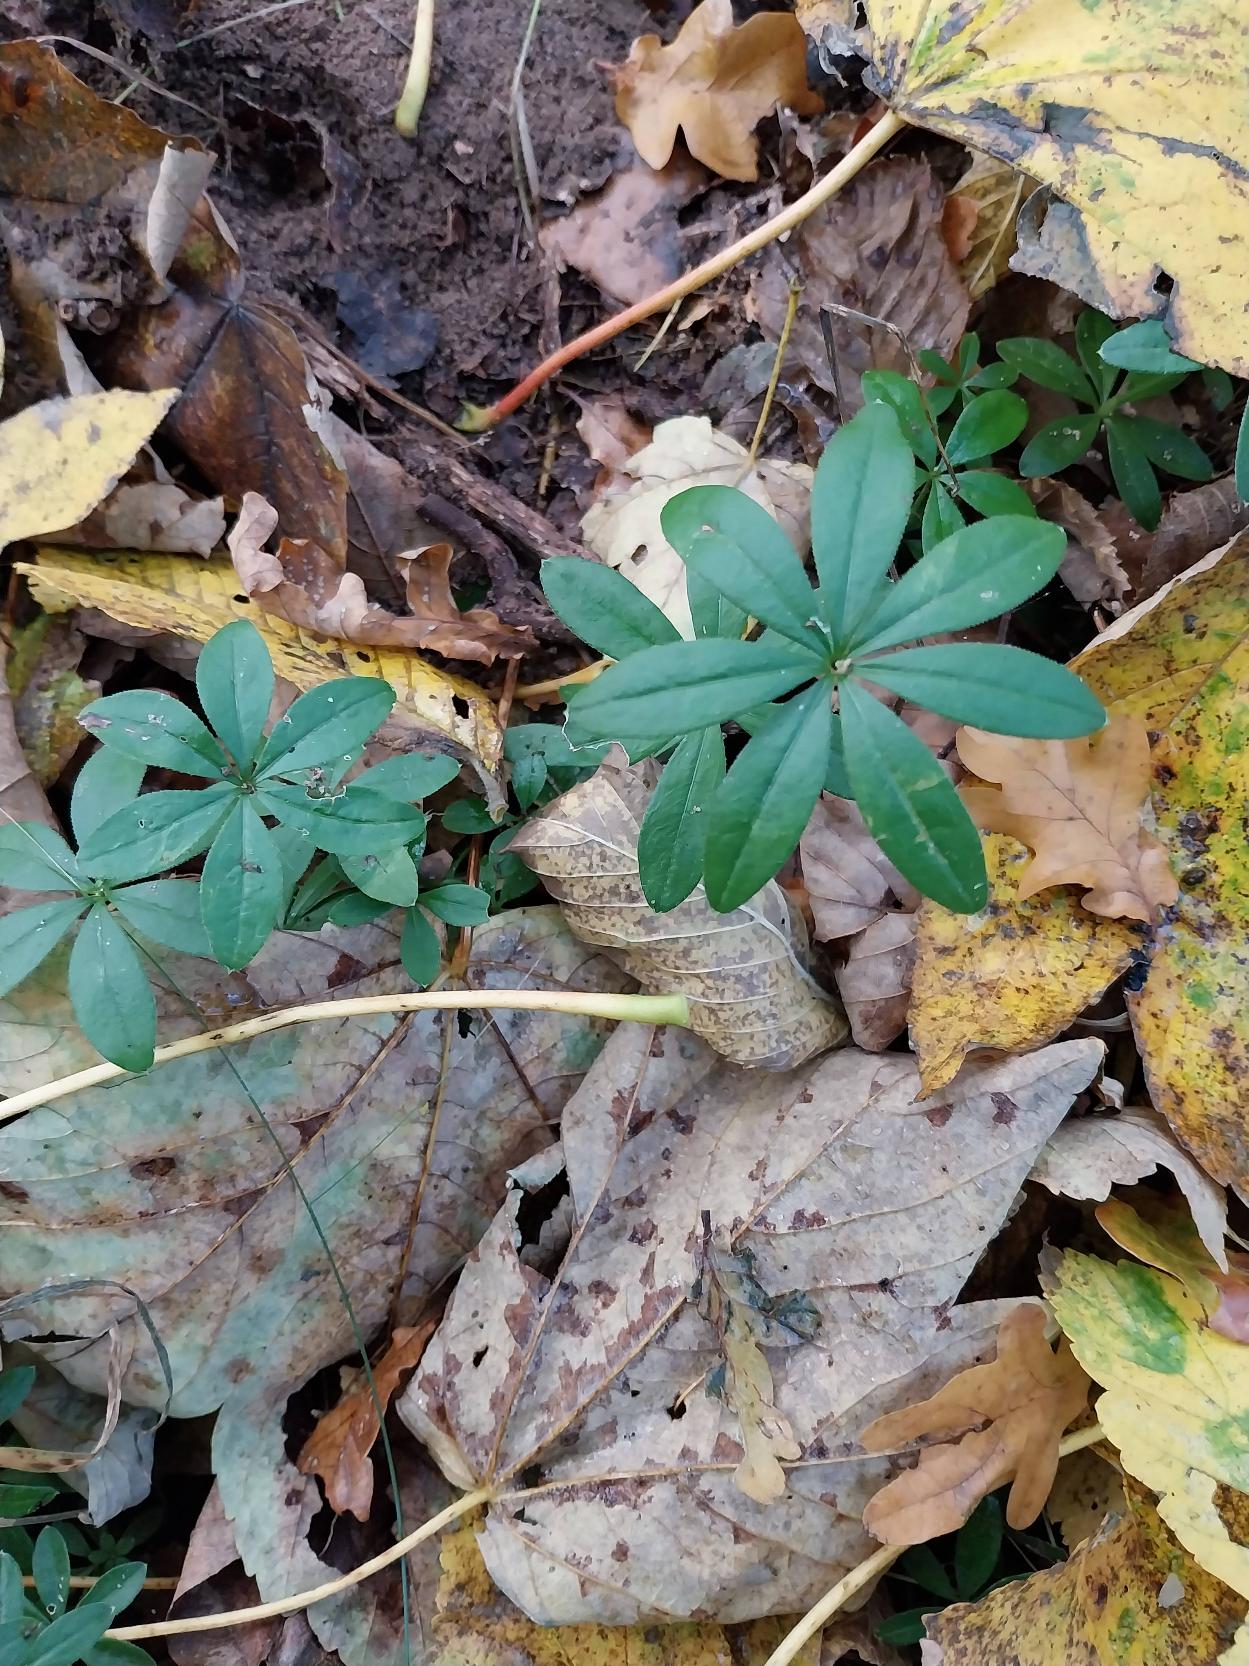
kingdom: Plantae
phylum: Tracheophyta
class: Magnoliopsida
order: Gentianales
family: Rubiaceae
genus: Galium
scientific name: Galium odoratum
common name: Skovmærke
